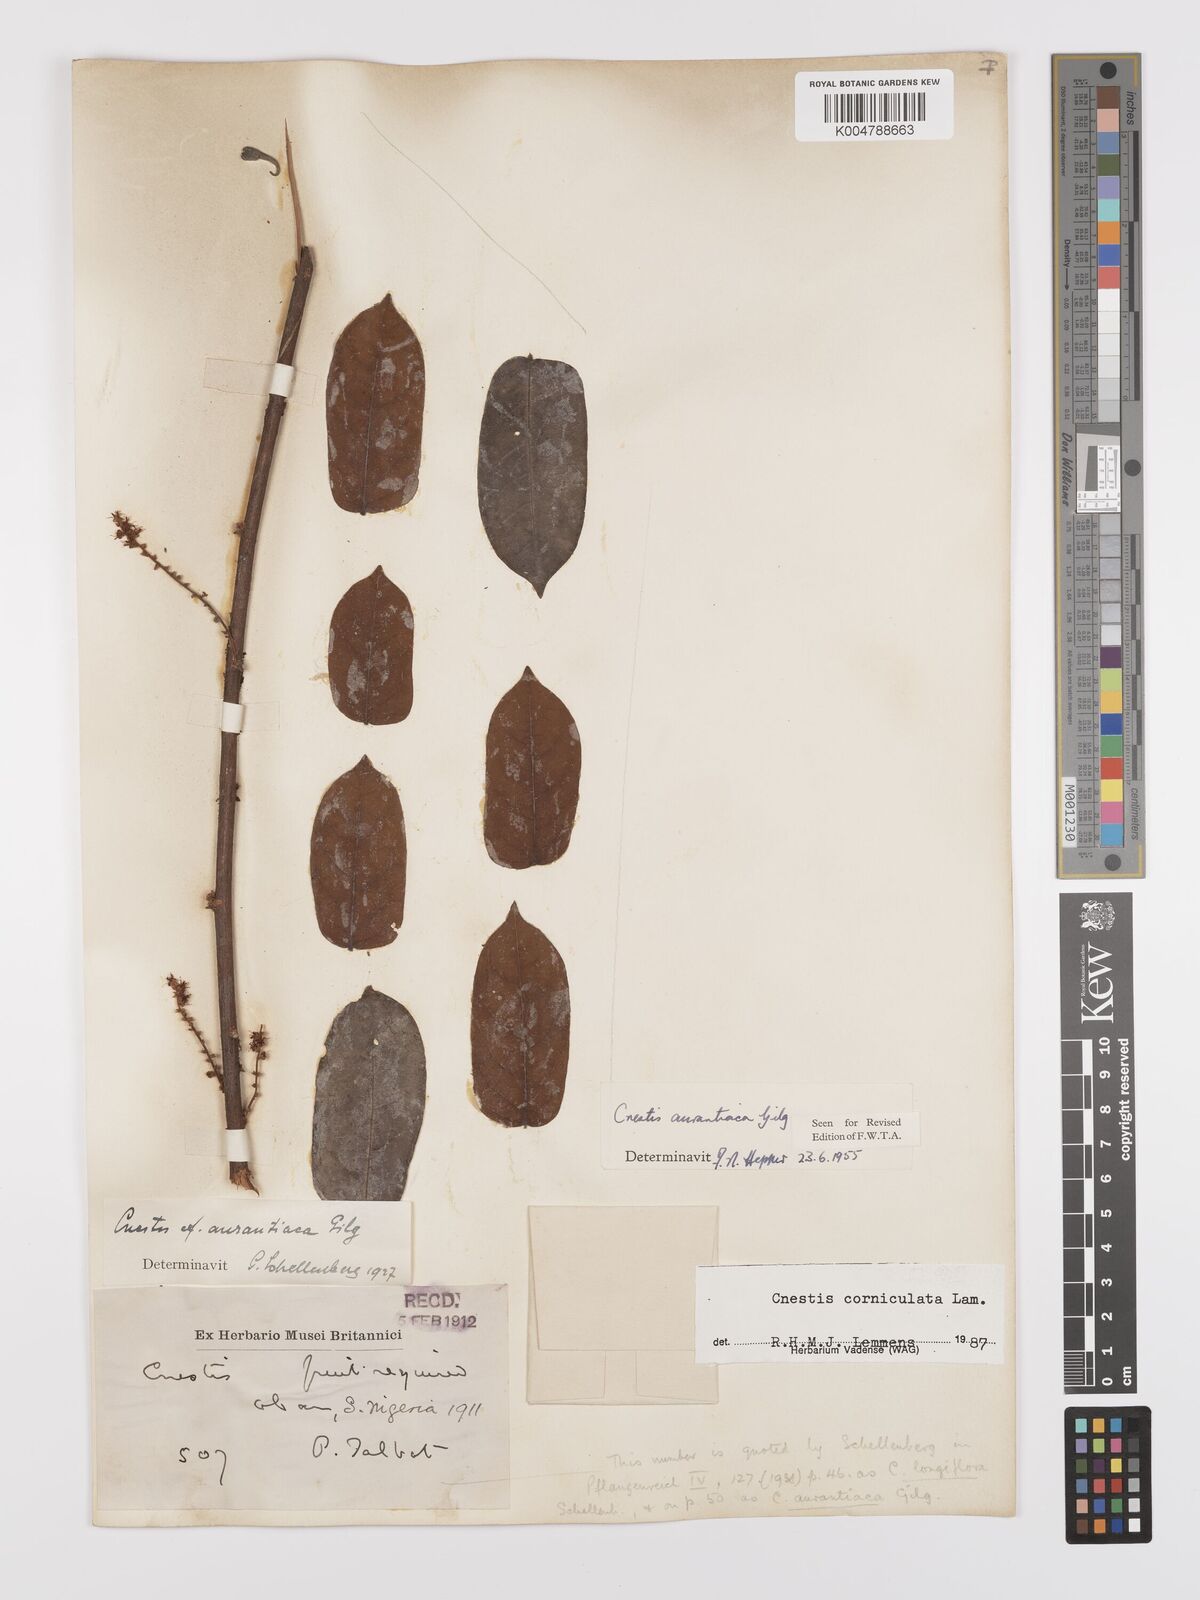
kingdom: Plantae
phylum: Tracheophyta
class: Magnoliopsida
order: Oxalidales
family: Connaraceae
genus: Cnestis
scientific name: Cnestis corniculata
